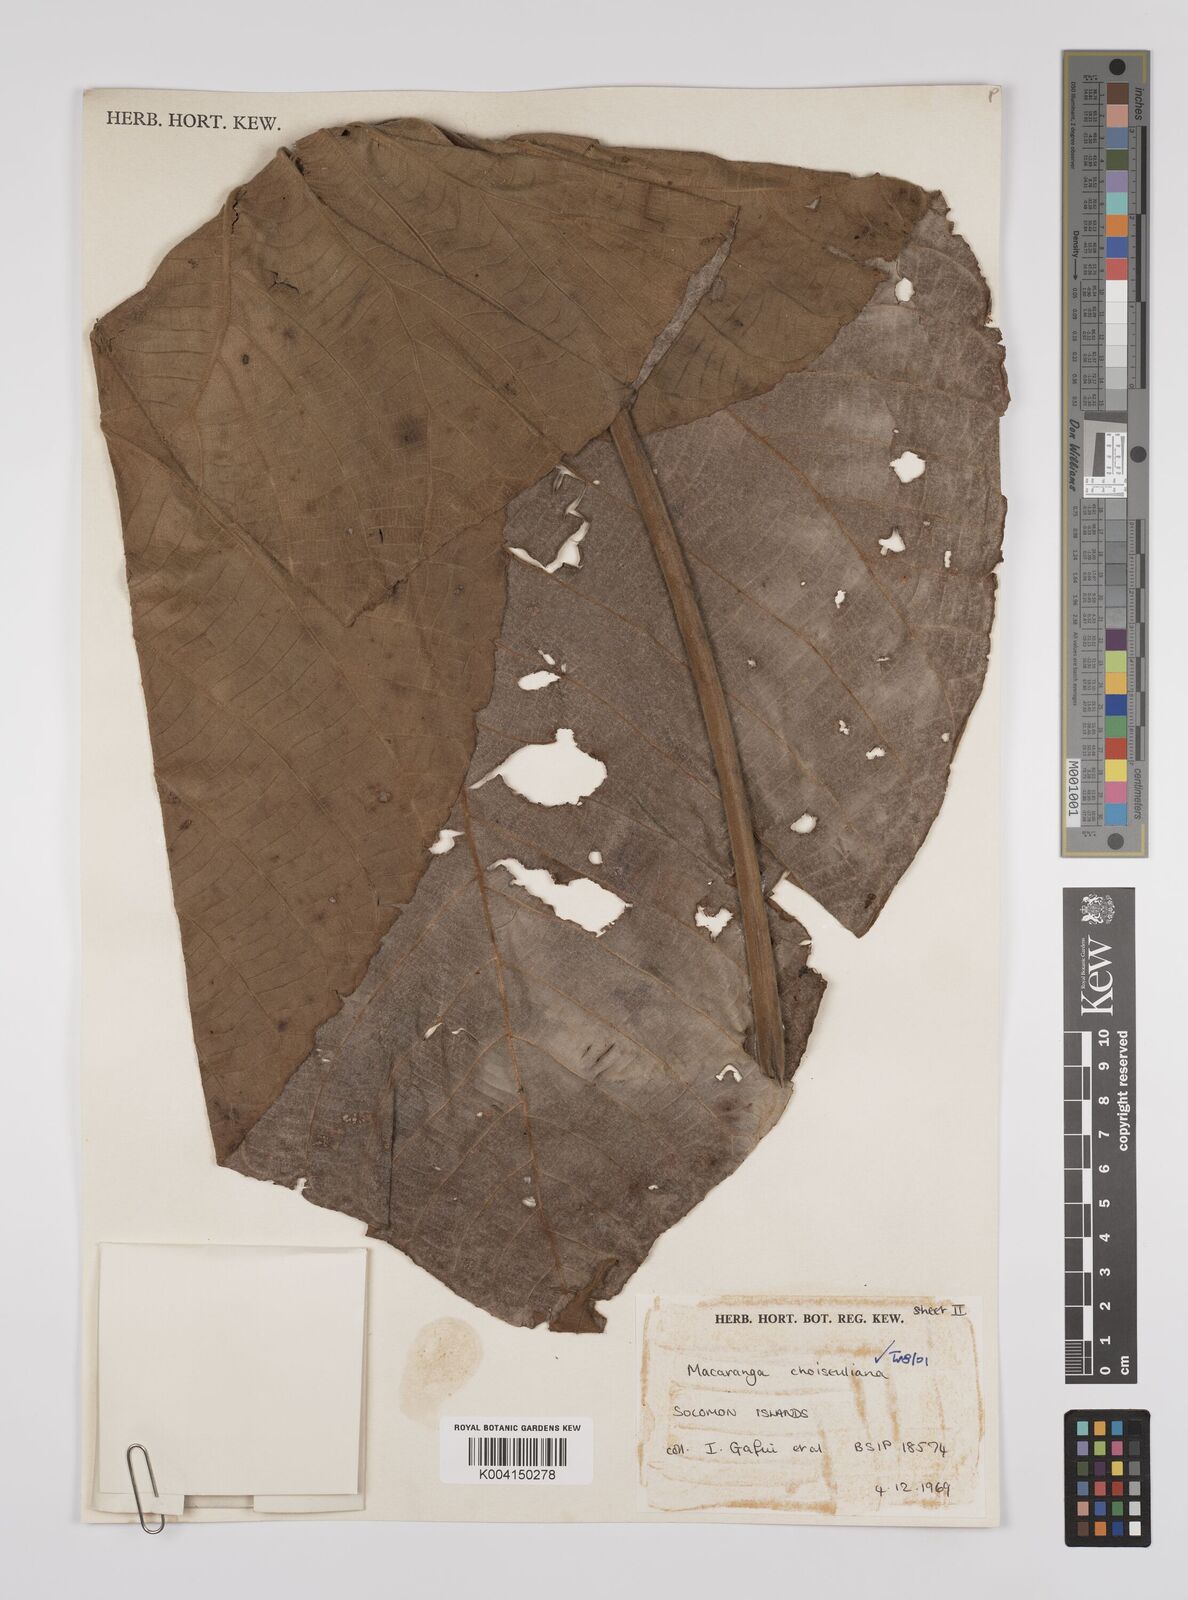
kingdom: Plantae
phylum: Tracheophyta
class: Magnoliopsida
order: Malpighiales
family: Euphorbiaceae
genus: Macaranga
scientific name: Macaranga choiseuliana
